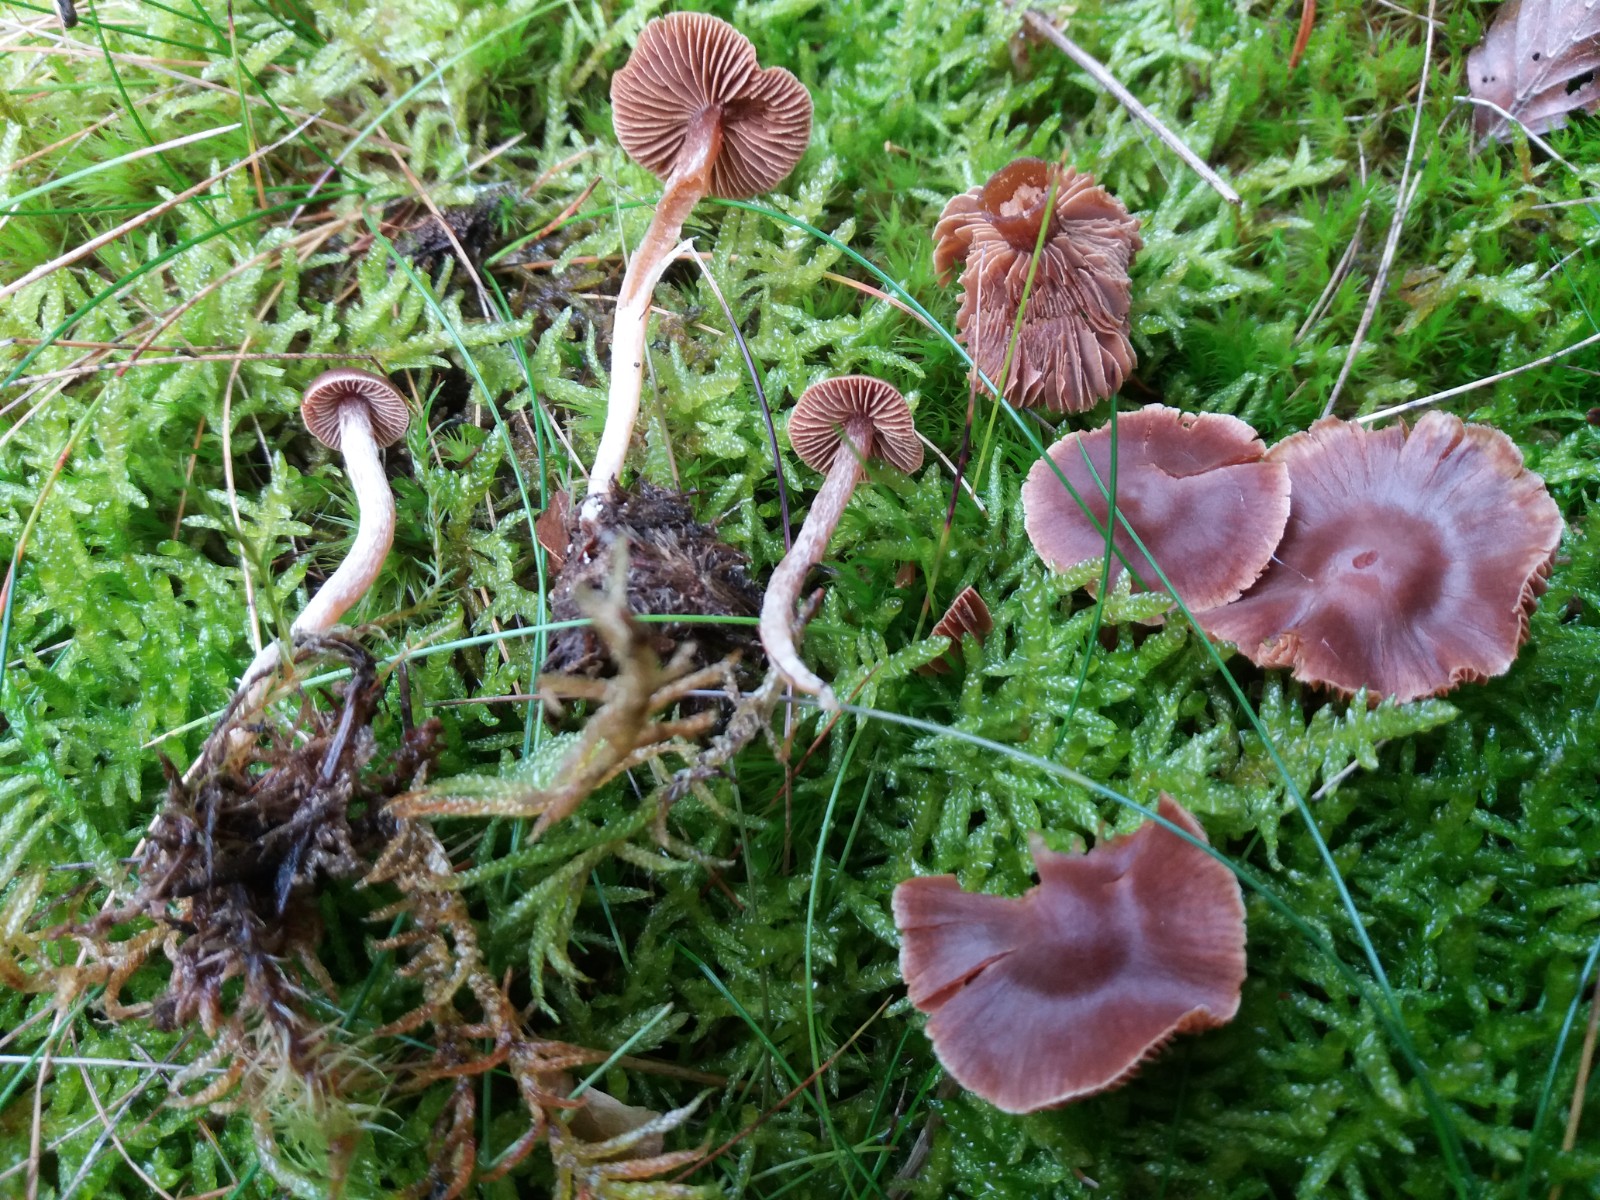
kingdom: Fungi
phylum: Basidiomycota
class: Agaricomycetes
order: Agaricales
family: Cortinariaceae
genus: Cortinarius
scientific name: Cortinarius
